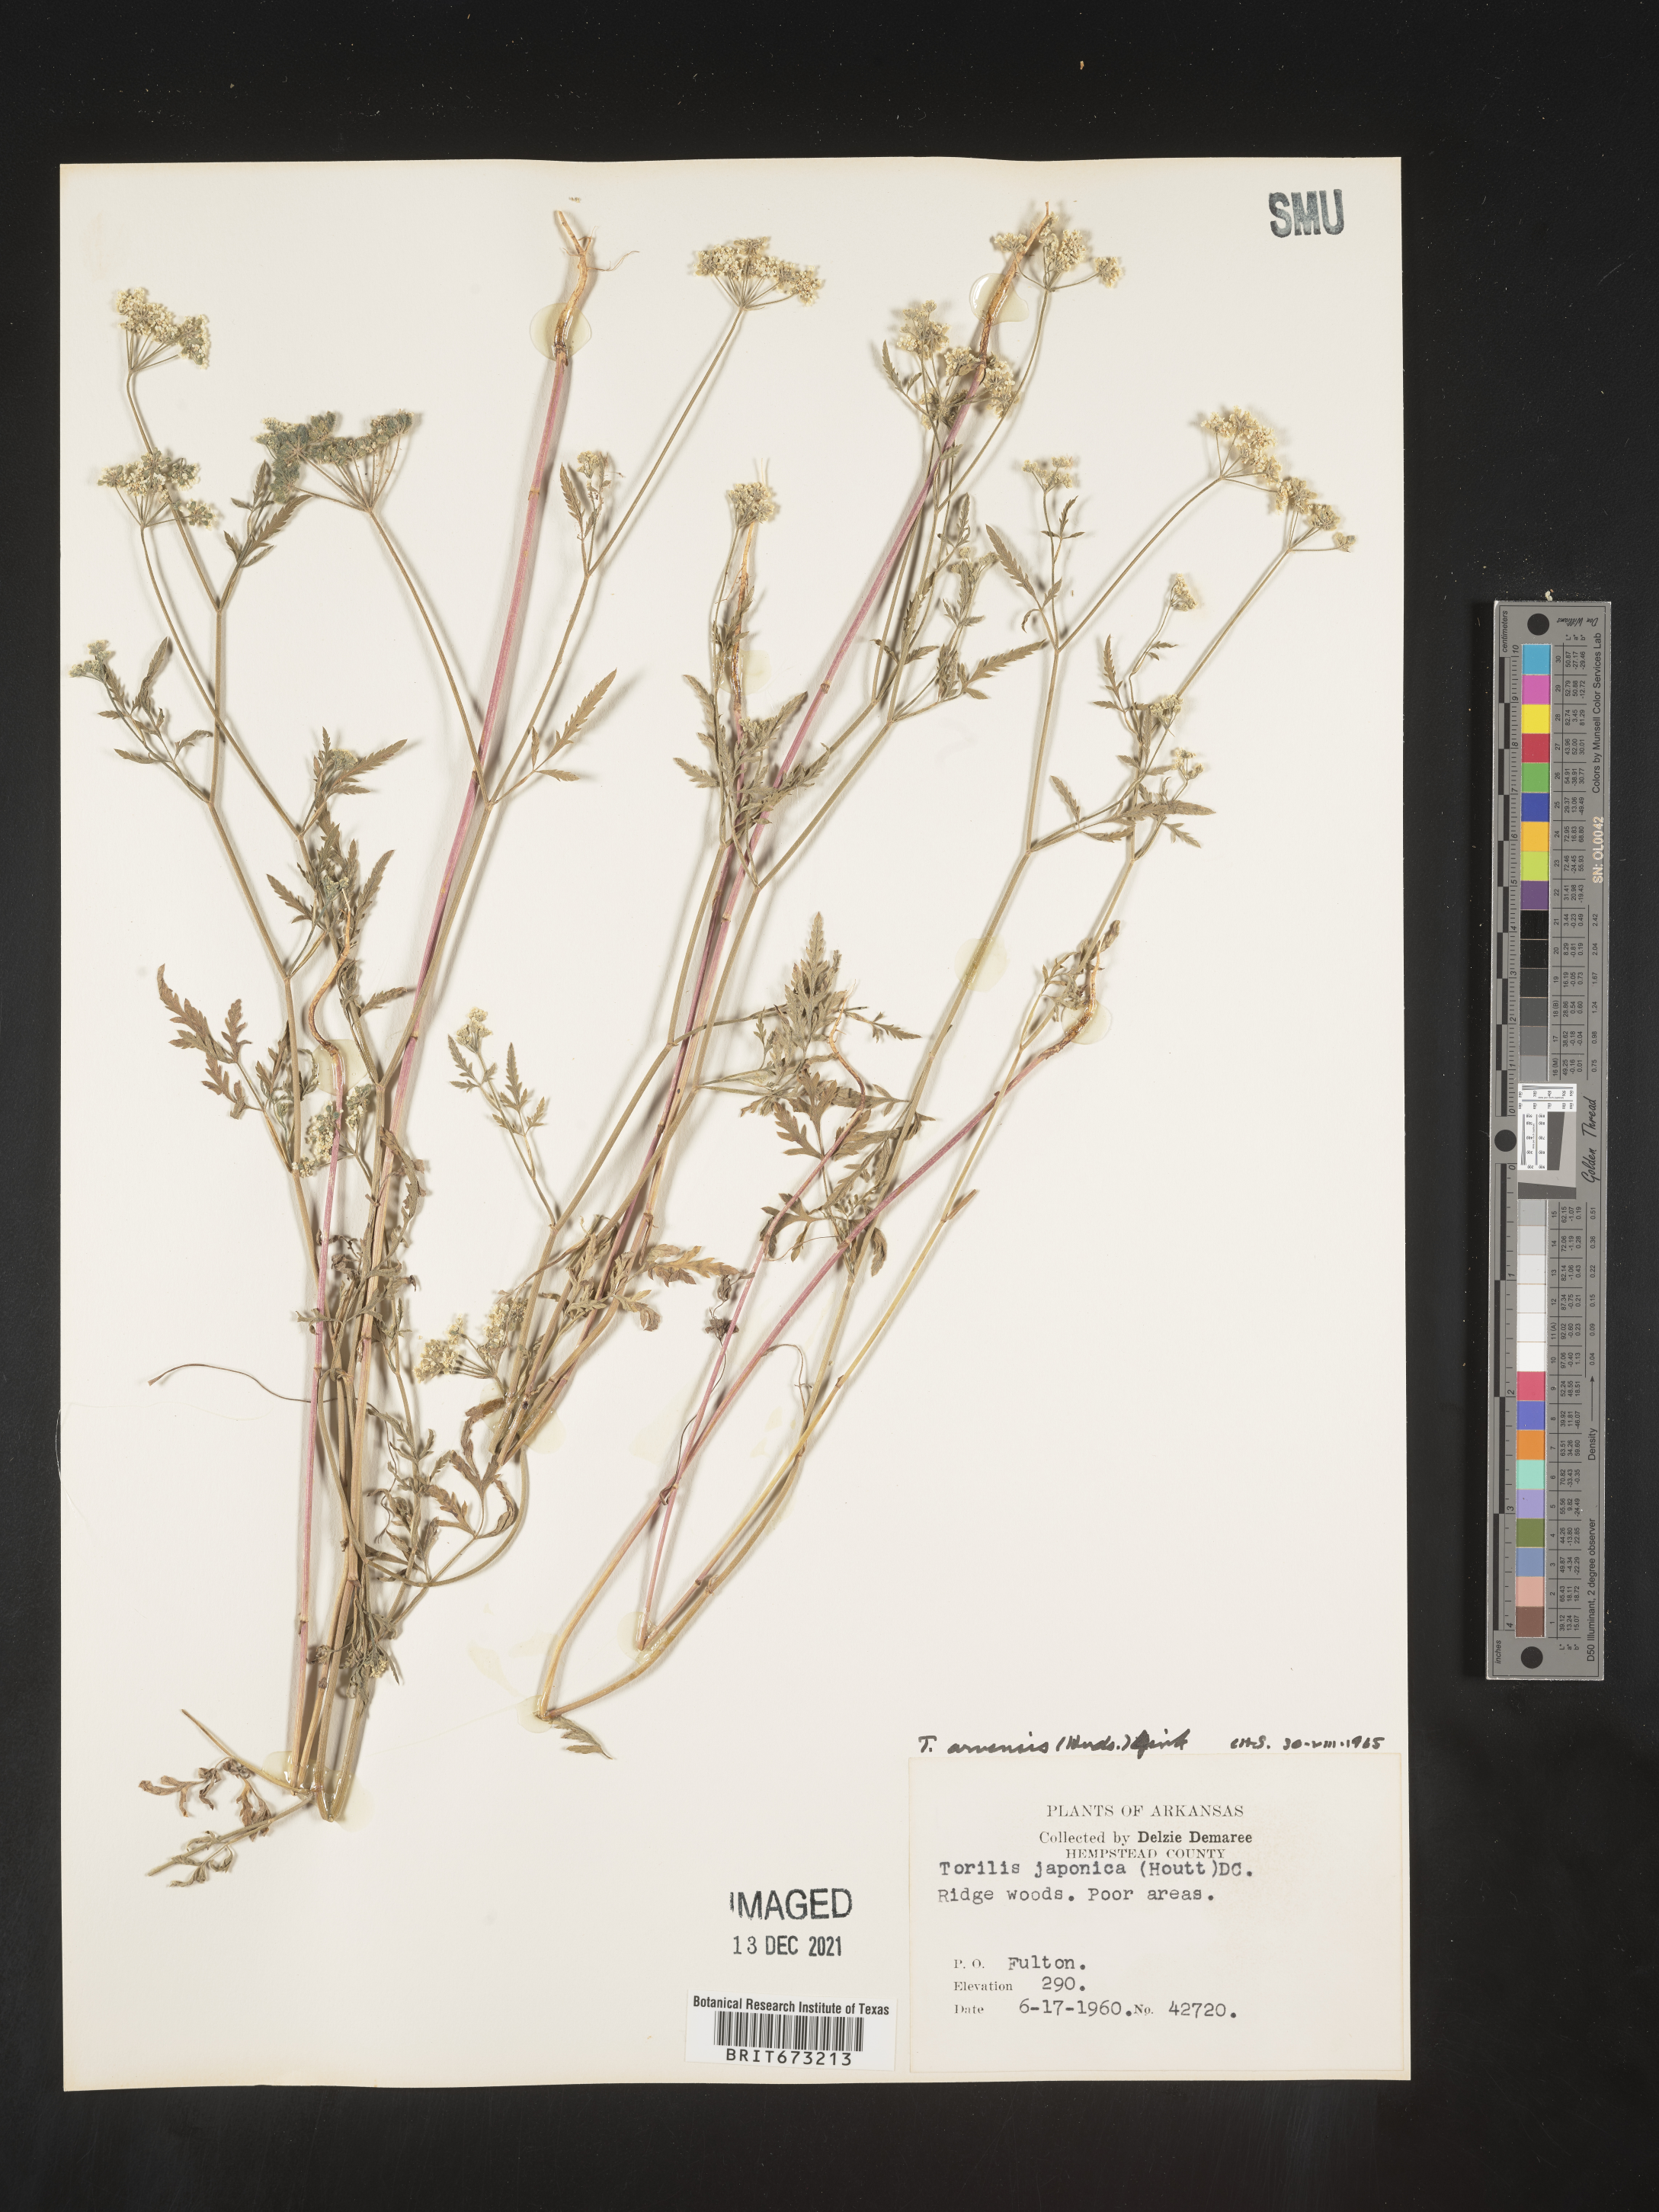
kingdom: Plantae
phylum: Tracheophyta
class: Magnoliopsida
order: Apiales
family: Apiaceae
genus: Torilis
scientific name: Torilis arvensis
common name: Spreading hedge-parsley
